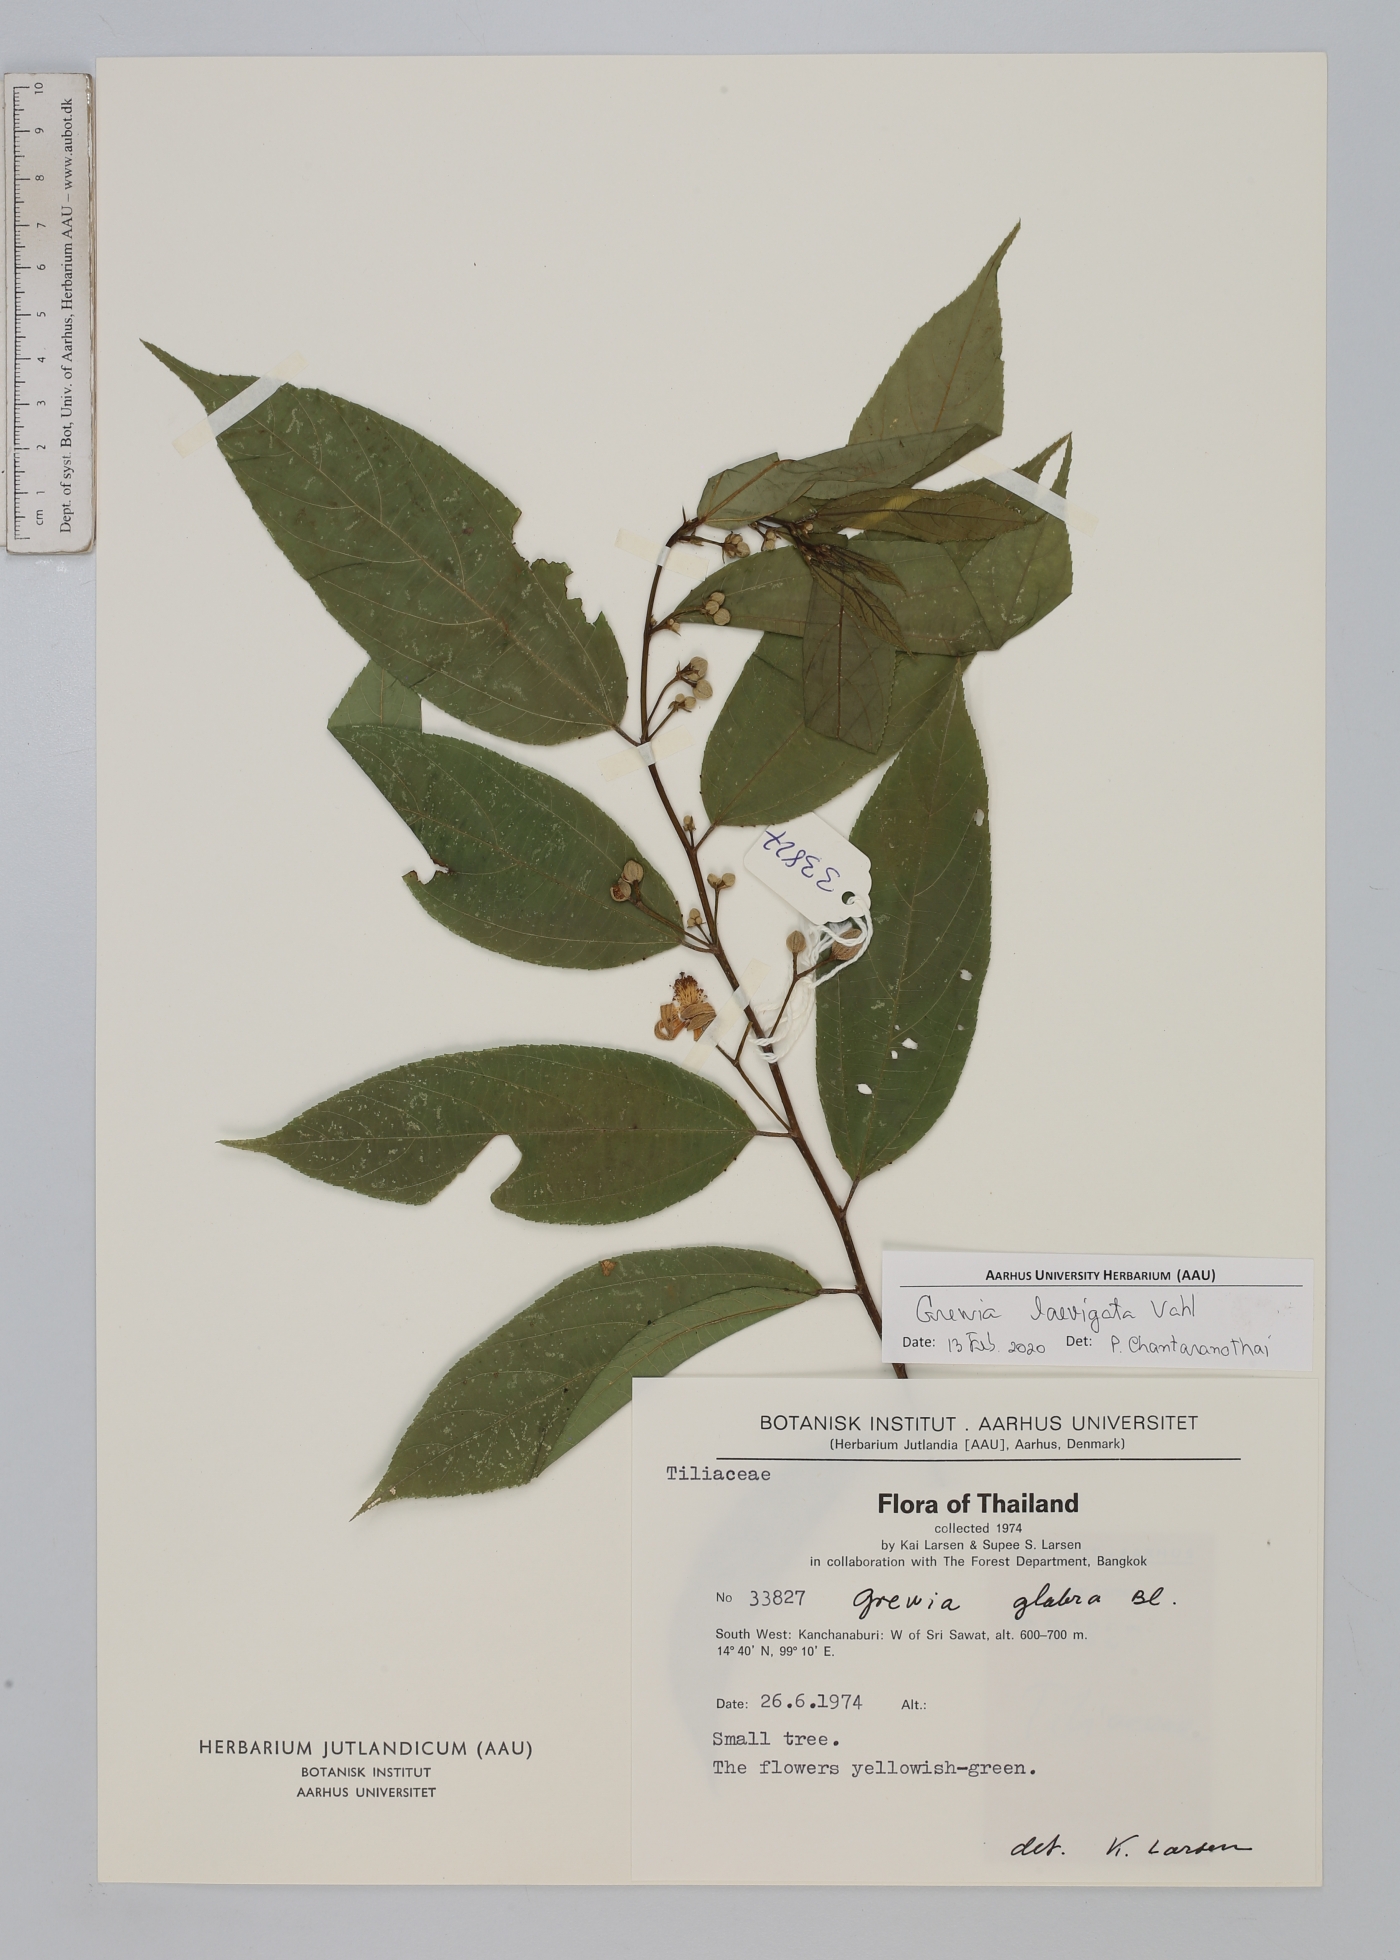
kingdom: Plantae
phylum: Tracheophyta
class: Magnoliopsida
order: Malvales
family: Malvaceae
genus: Grewia
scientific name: Grewia laevigata
